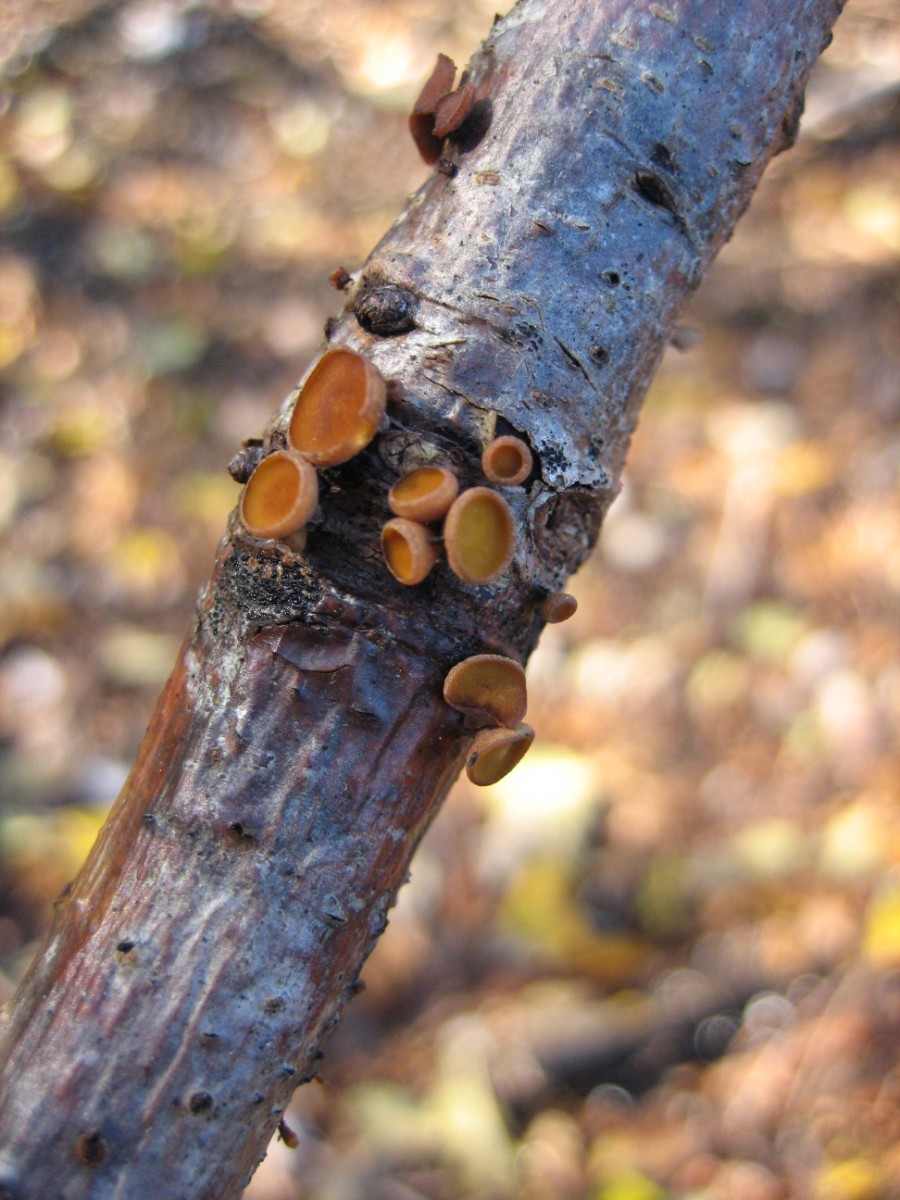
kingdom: Fungi
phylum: Ascomycota
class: Leotiomycetes
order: Helotiales
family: Rutstroemiaceae
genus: Rutstroemia
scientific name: Rutstroemia firma
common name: gren-brunskive
